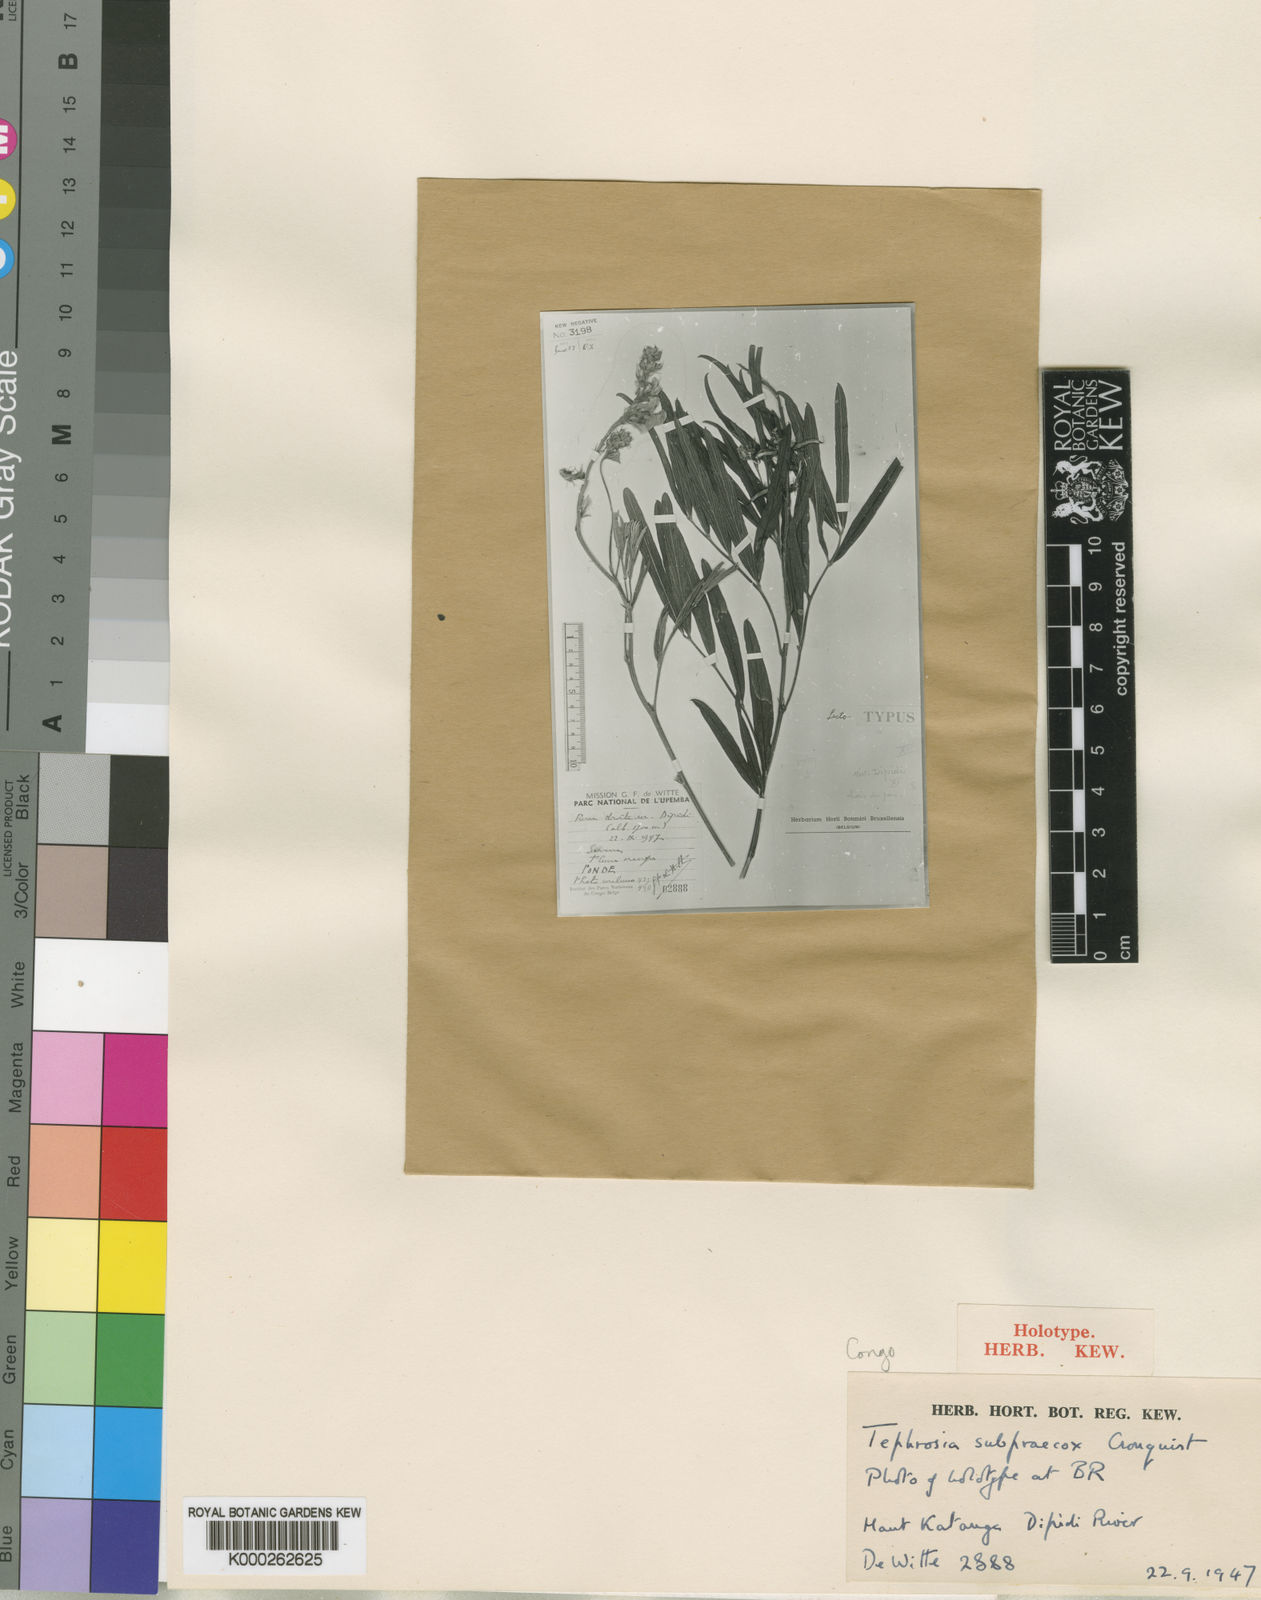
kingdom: Plantae
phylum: Tracheophyta
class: Magnoliopsida
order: Fabales
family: Fabaceae
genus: Tephrosia
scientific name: Tephrosia subpraecox
